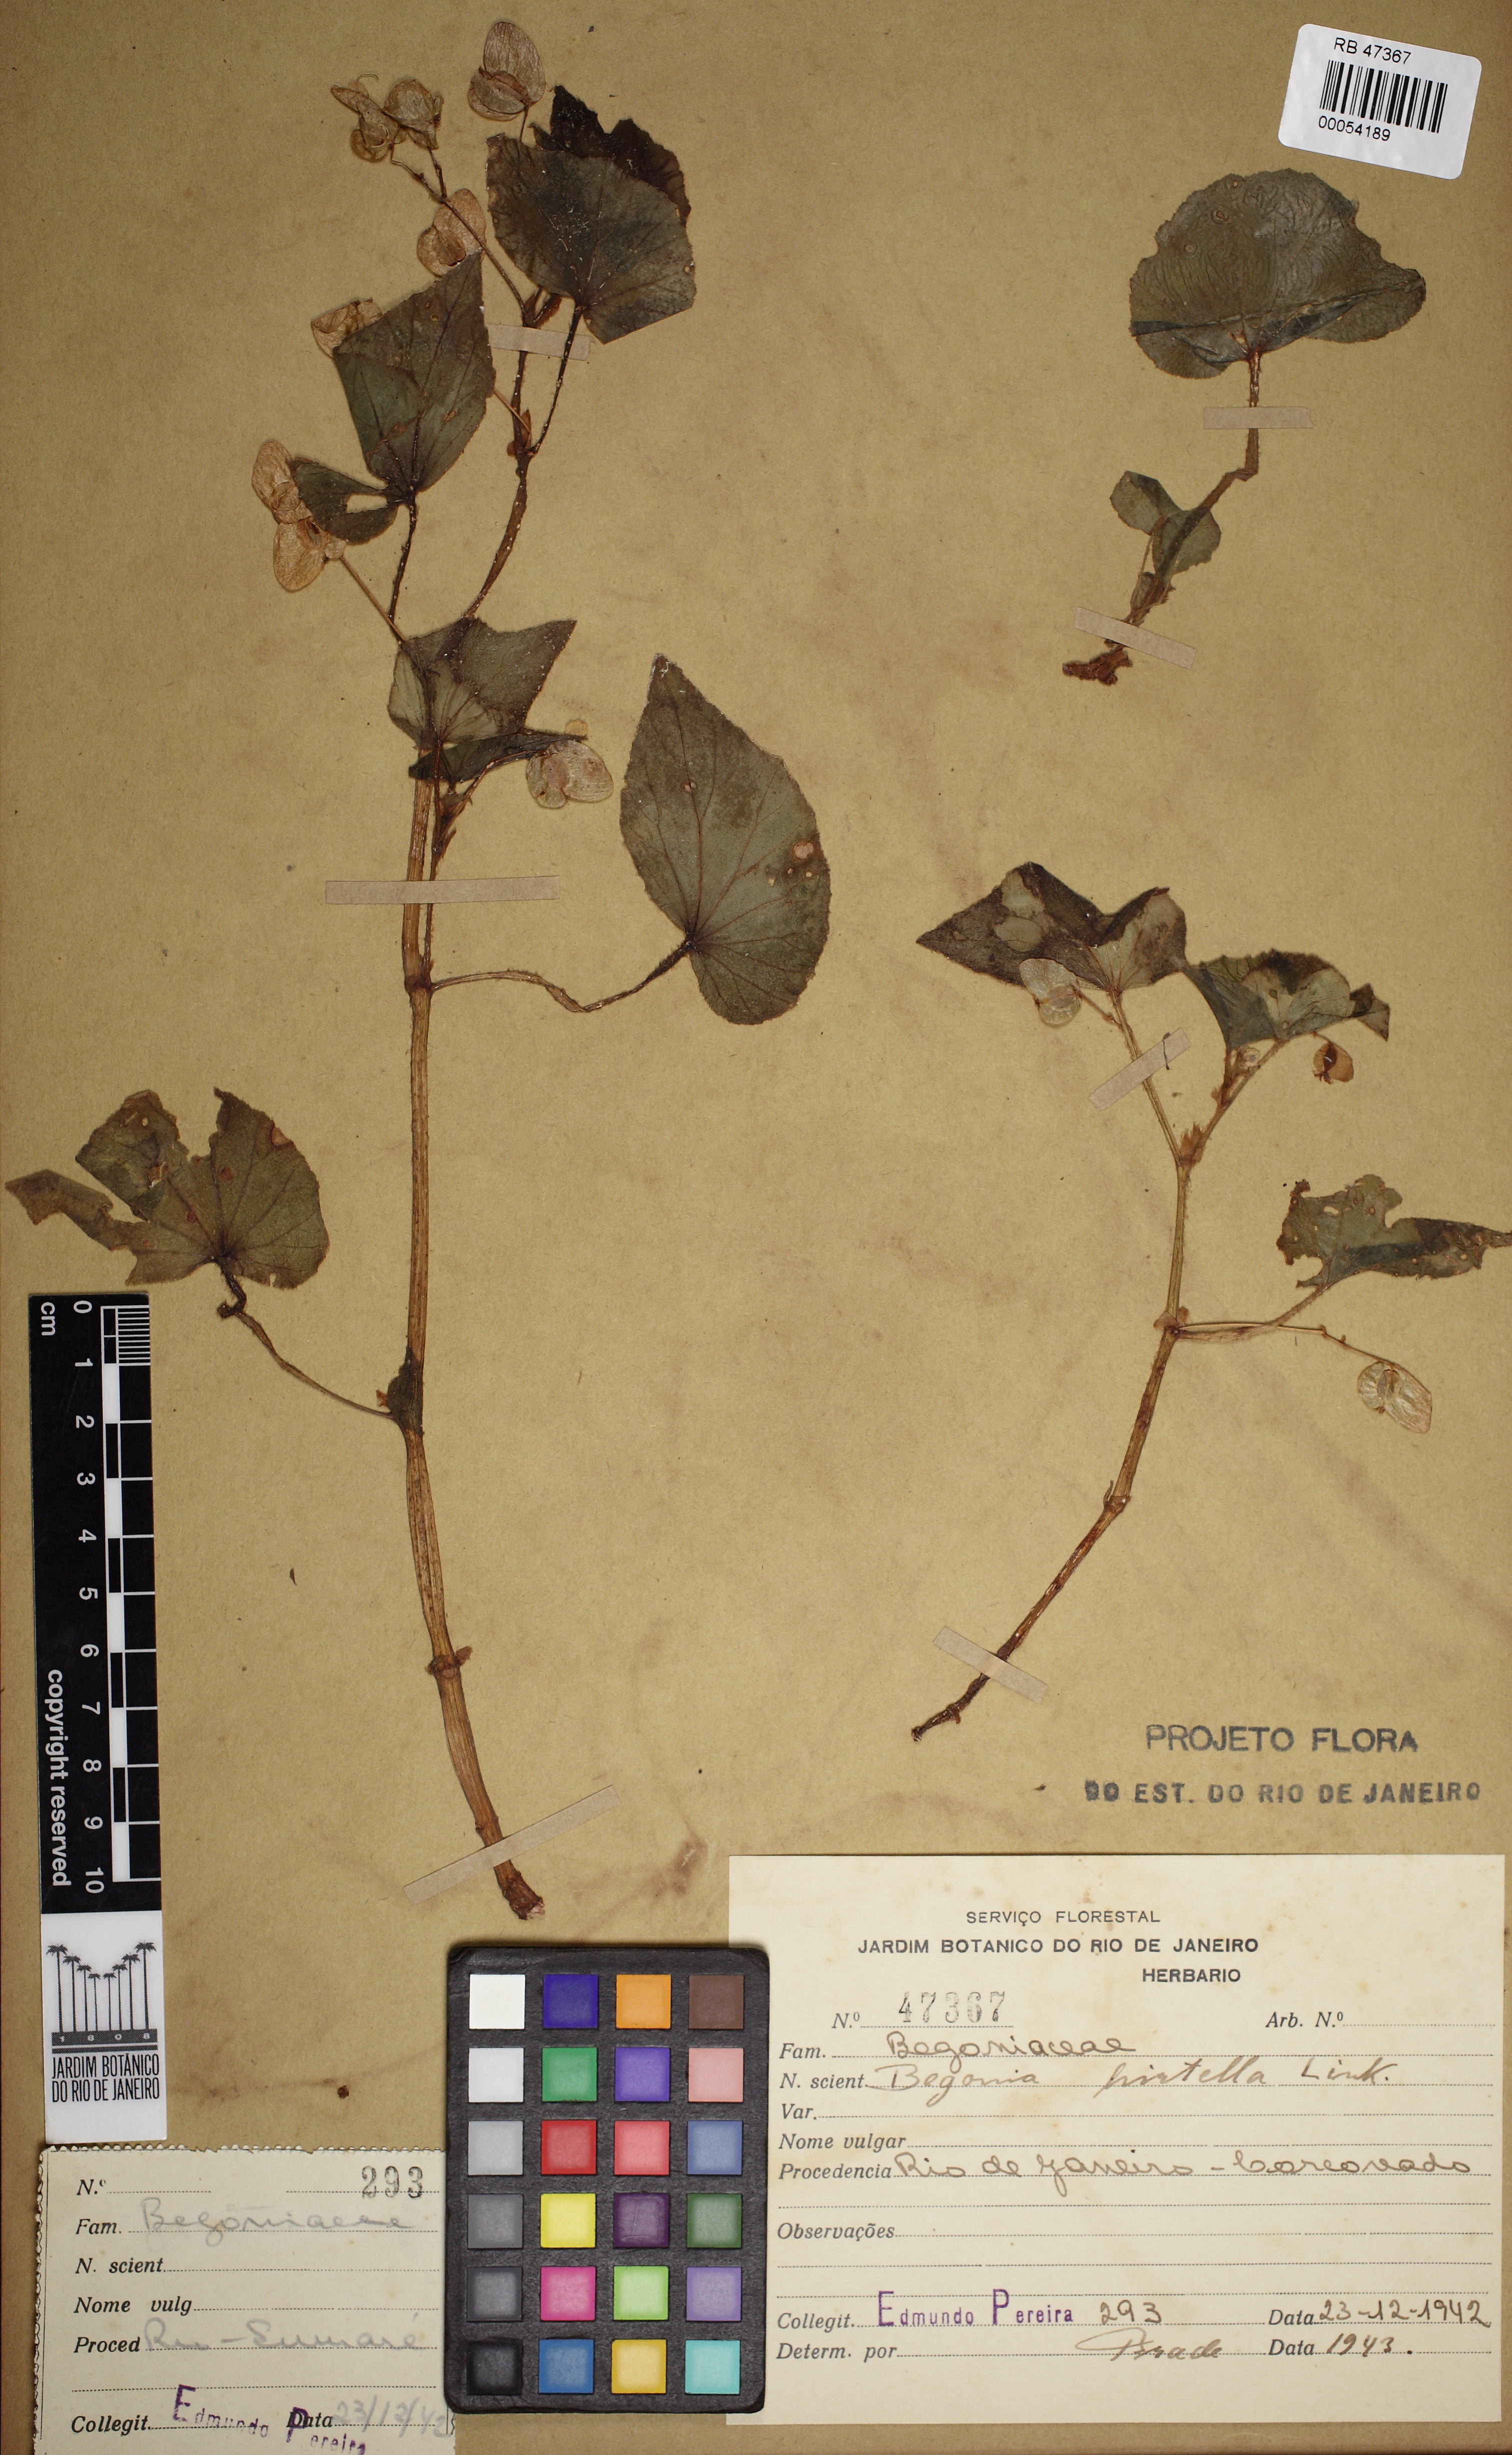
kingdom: Plantae
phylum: Tracheophyta
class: Magnoliopsida
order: Cucurbitales
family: Begoniaceae
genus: Begonia
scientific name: Begonia hirtella
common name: Brazilian begonia
